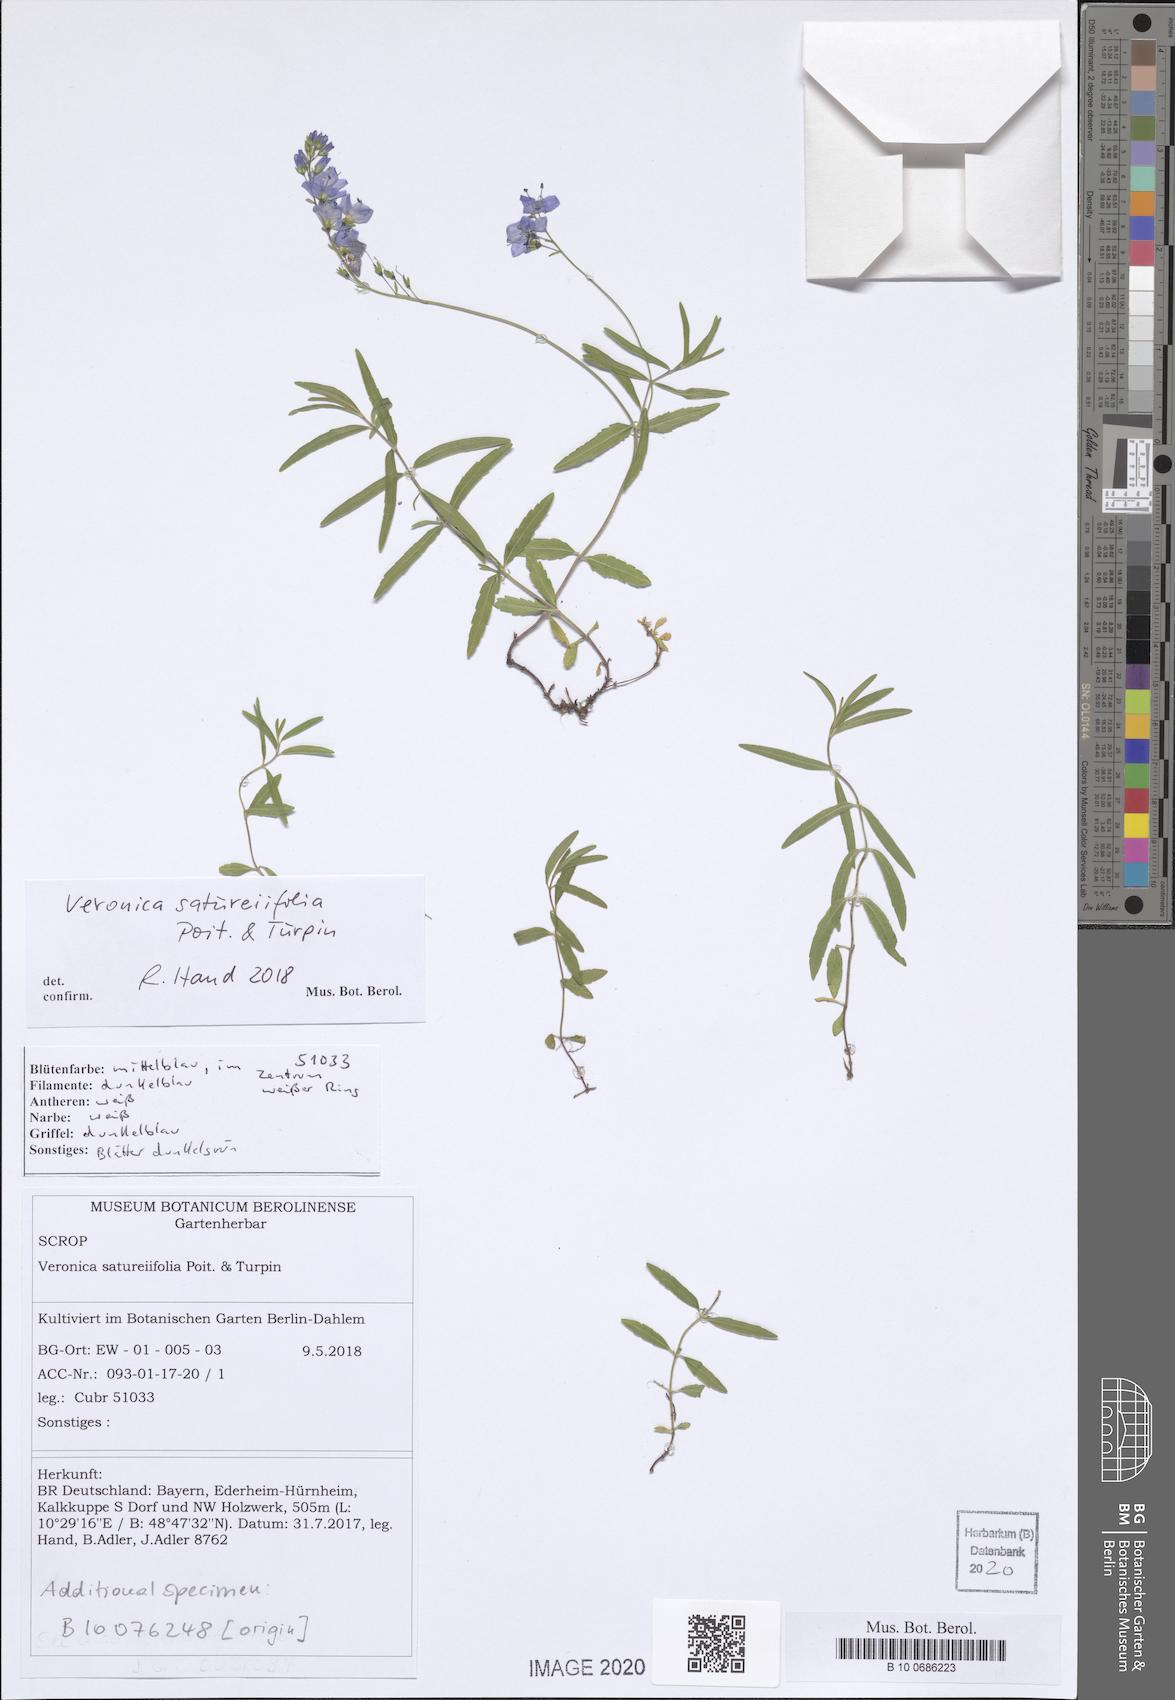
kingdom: Plantae
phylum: Tracheophyta
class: Magnoliopsida
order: Lamiales
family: Plantaginaceae
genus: Veronica
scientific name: Veronica satureiifolia
